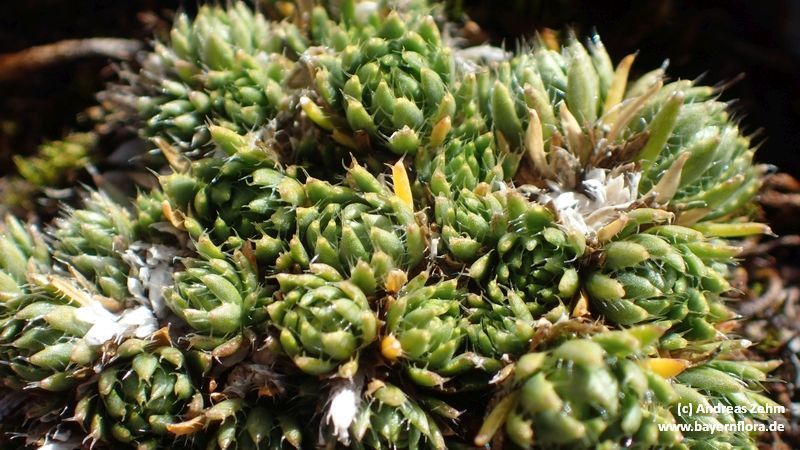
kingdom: Plantae
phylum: Tracheophyta
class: Magnoliopsida
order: Brassicales
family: Brassicaceae
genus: Draba
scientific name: Draba aizoides
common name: Yellow whitlowgrass
